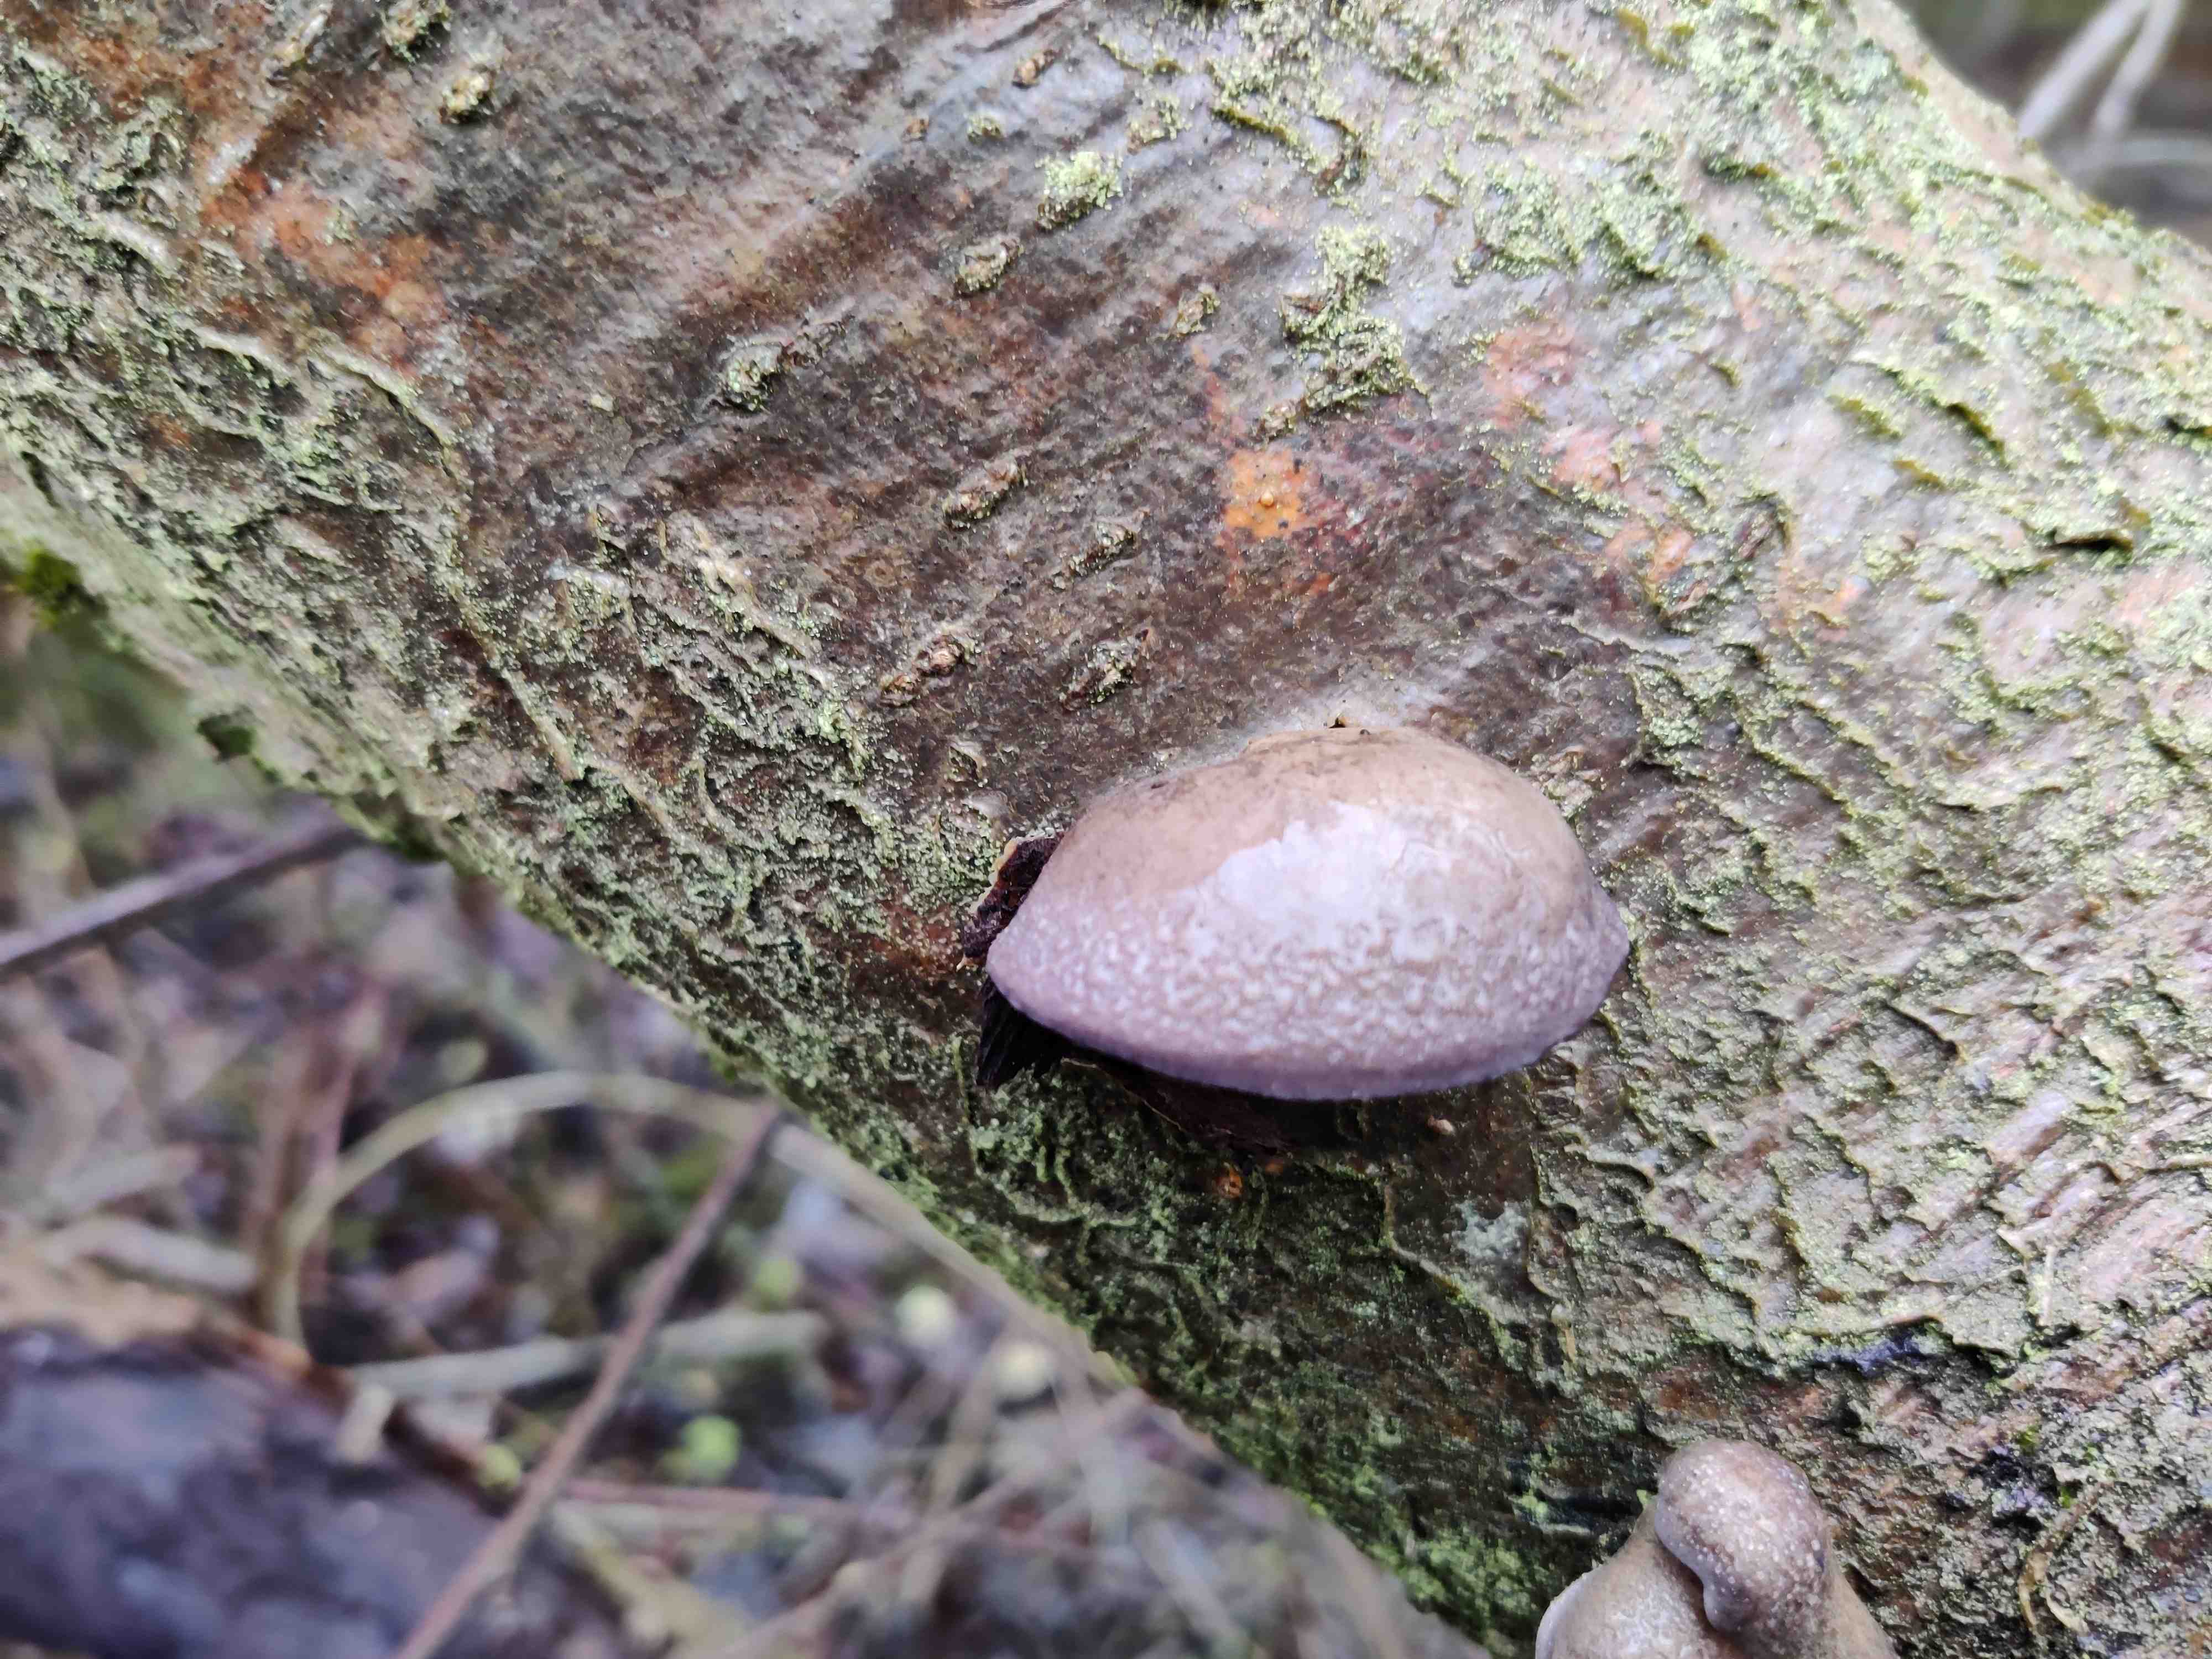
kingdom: Fungi
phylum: Basidiomycota
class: Agaricomycetes
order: Agaricales
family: Sarcomyxaceae
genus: Sarcomyxa
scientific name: Sarcomyxa serotina
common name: gummihat
